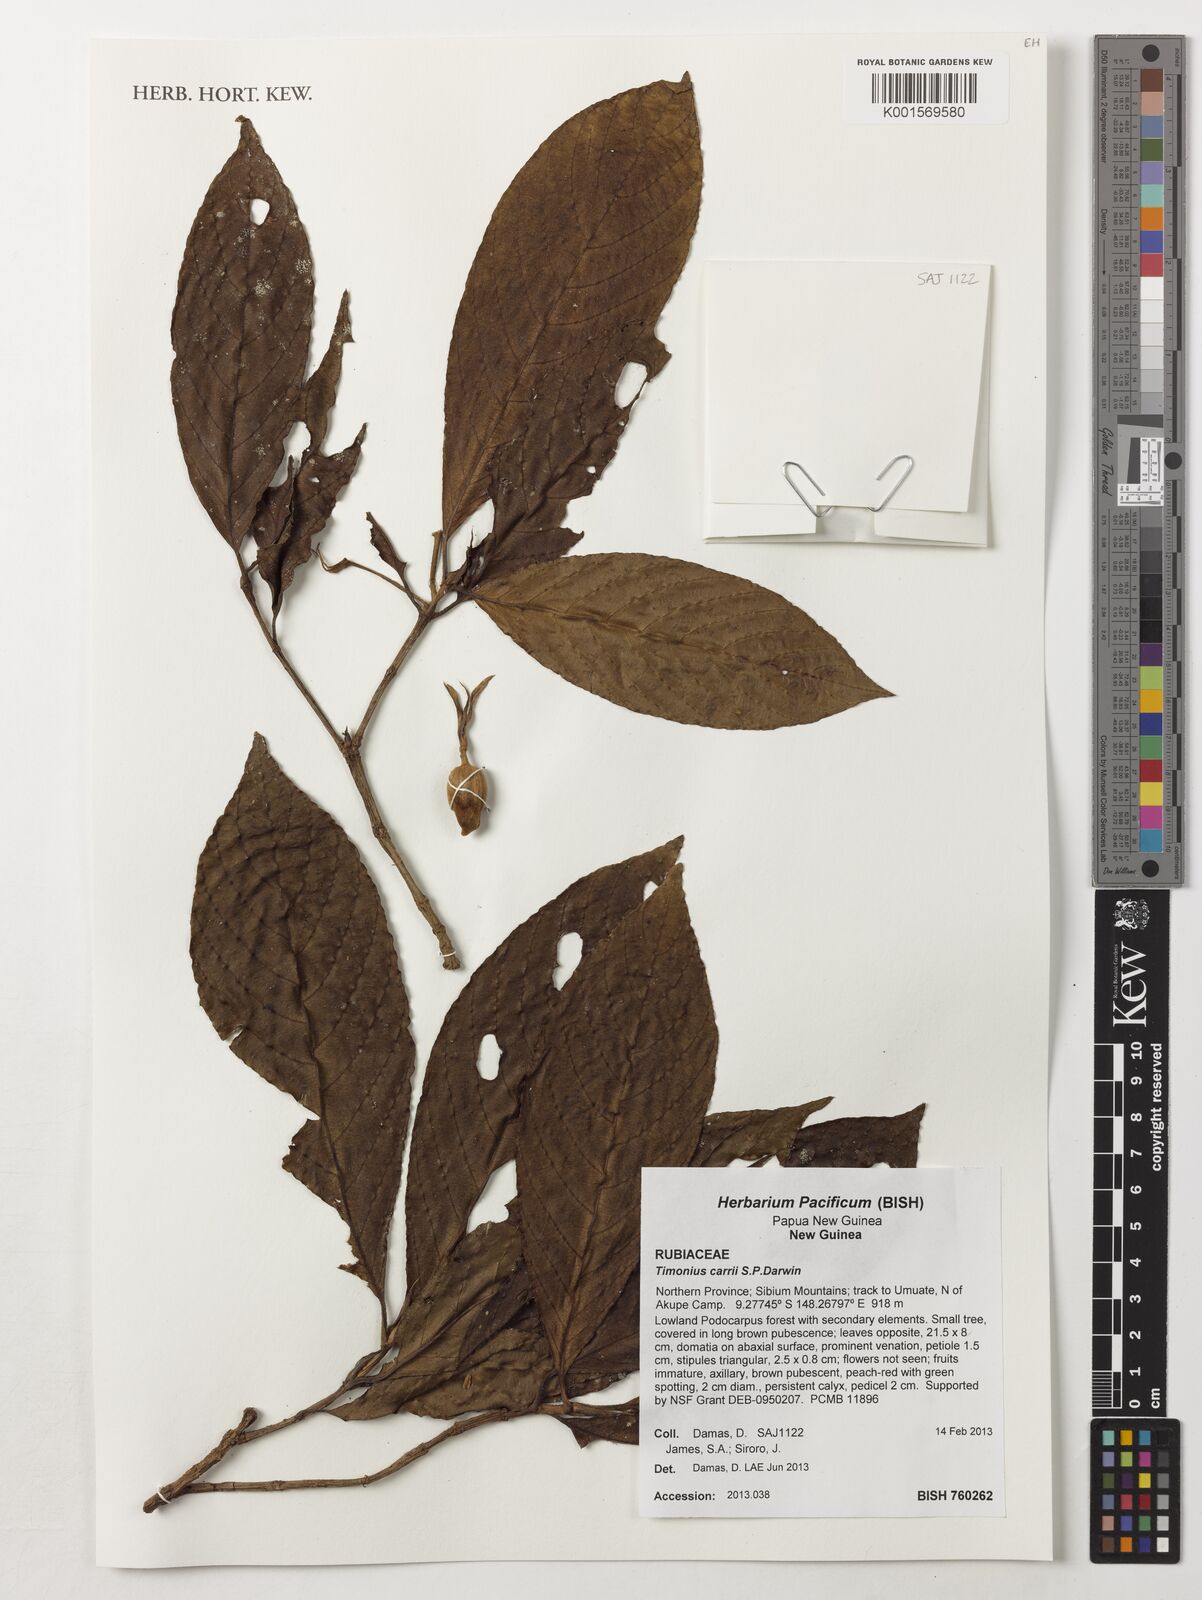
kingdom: Plantae
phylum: Tracheophyta
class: Magnoliopsida
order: Gentianales
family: Rubiaceae
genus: Timonius
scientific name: Timonius carii
